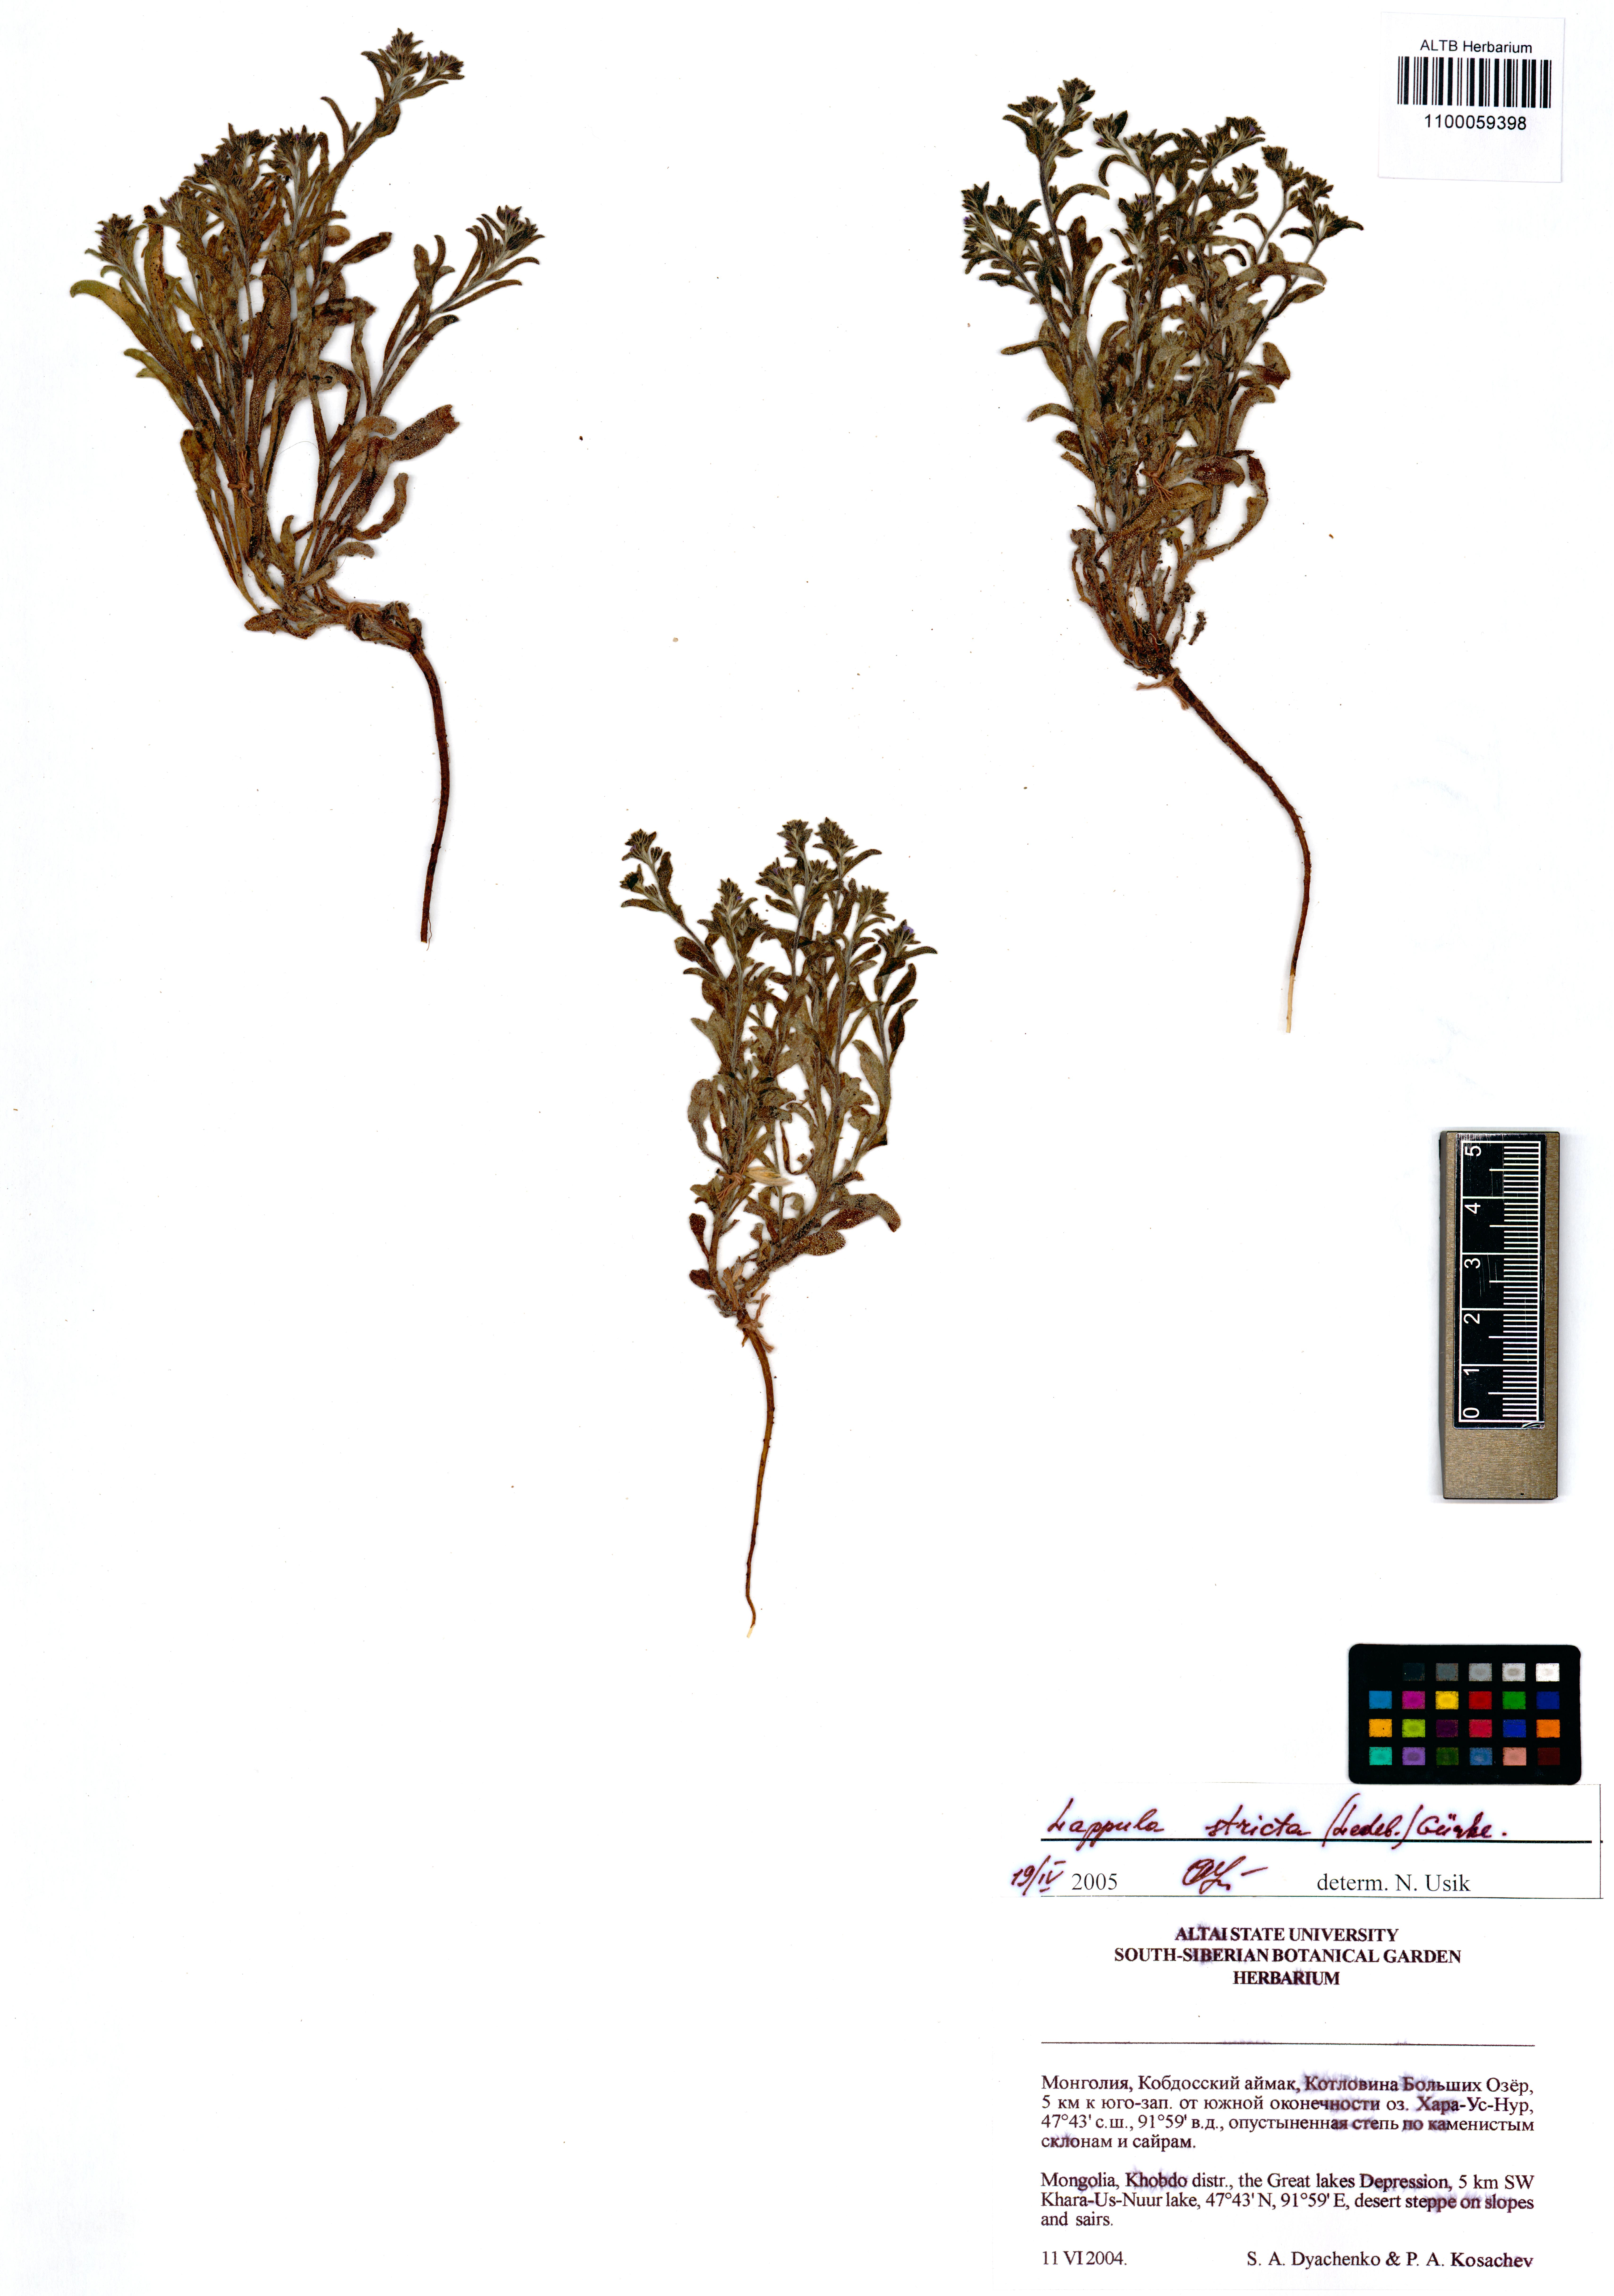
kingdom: Plantae
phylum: Tracheophyta
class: Magnoliopsida
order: Boraginales
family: Boraginaceae
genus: Lappula
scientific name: Lappula stricta
